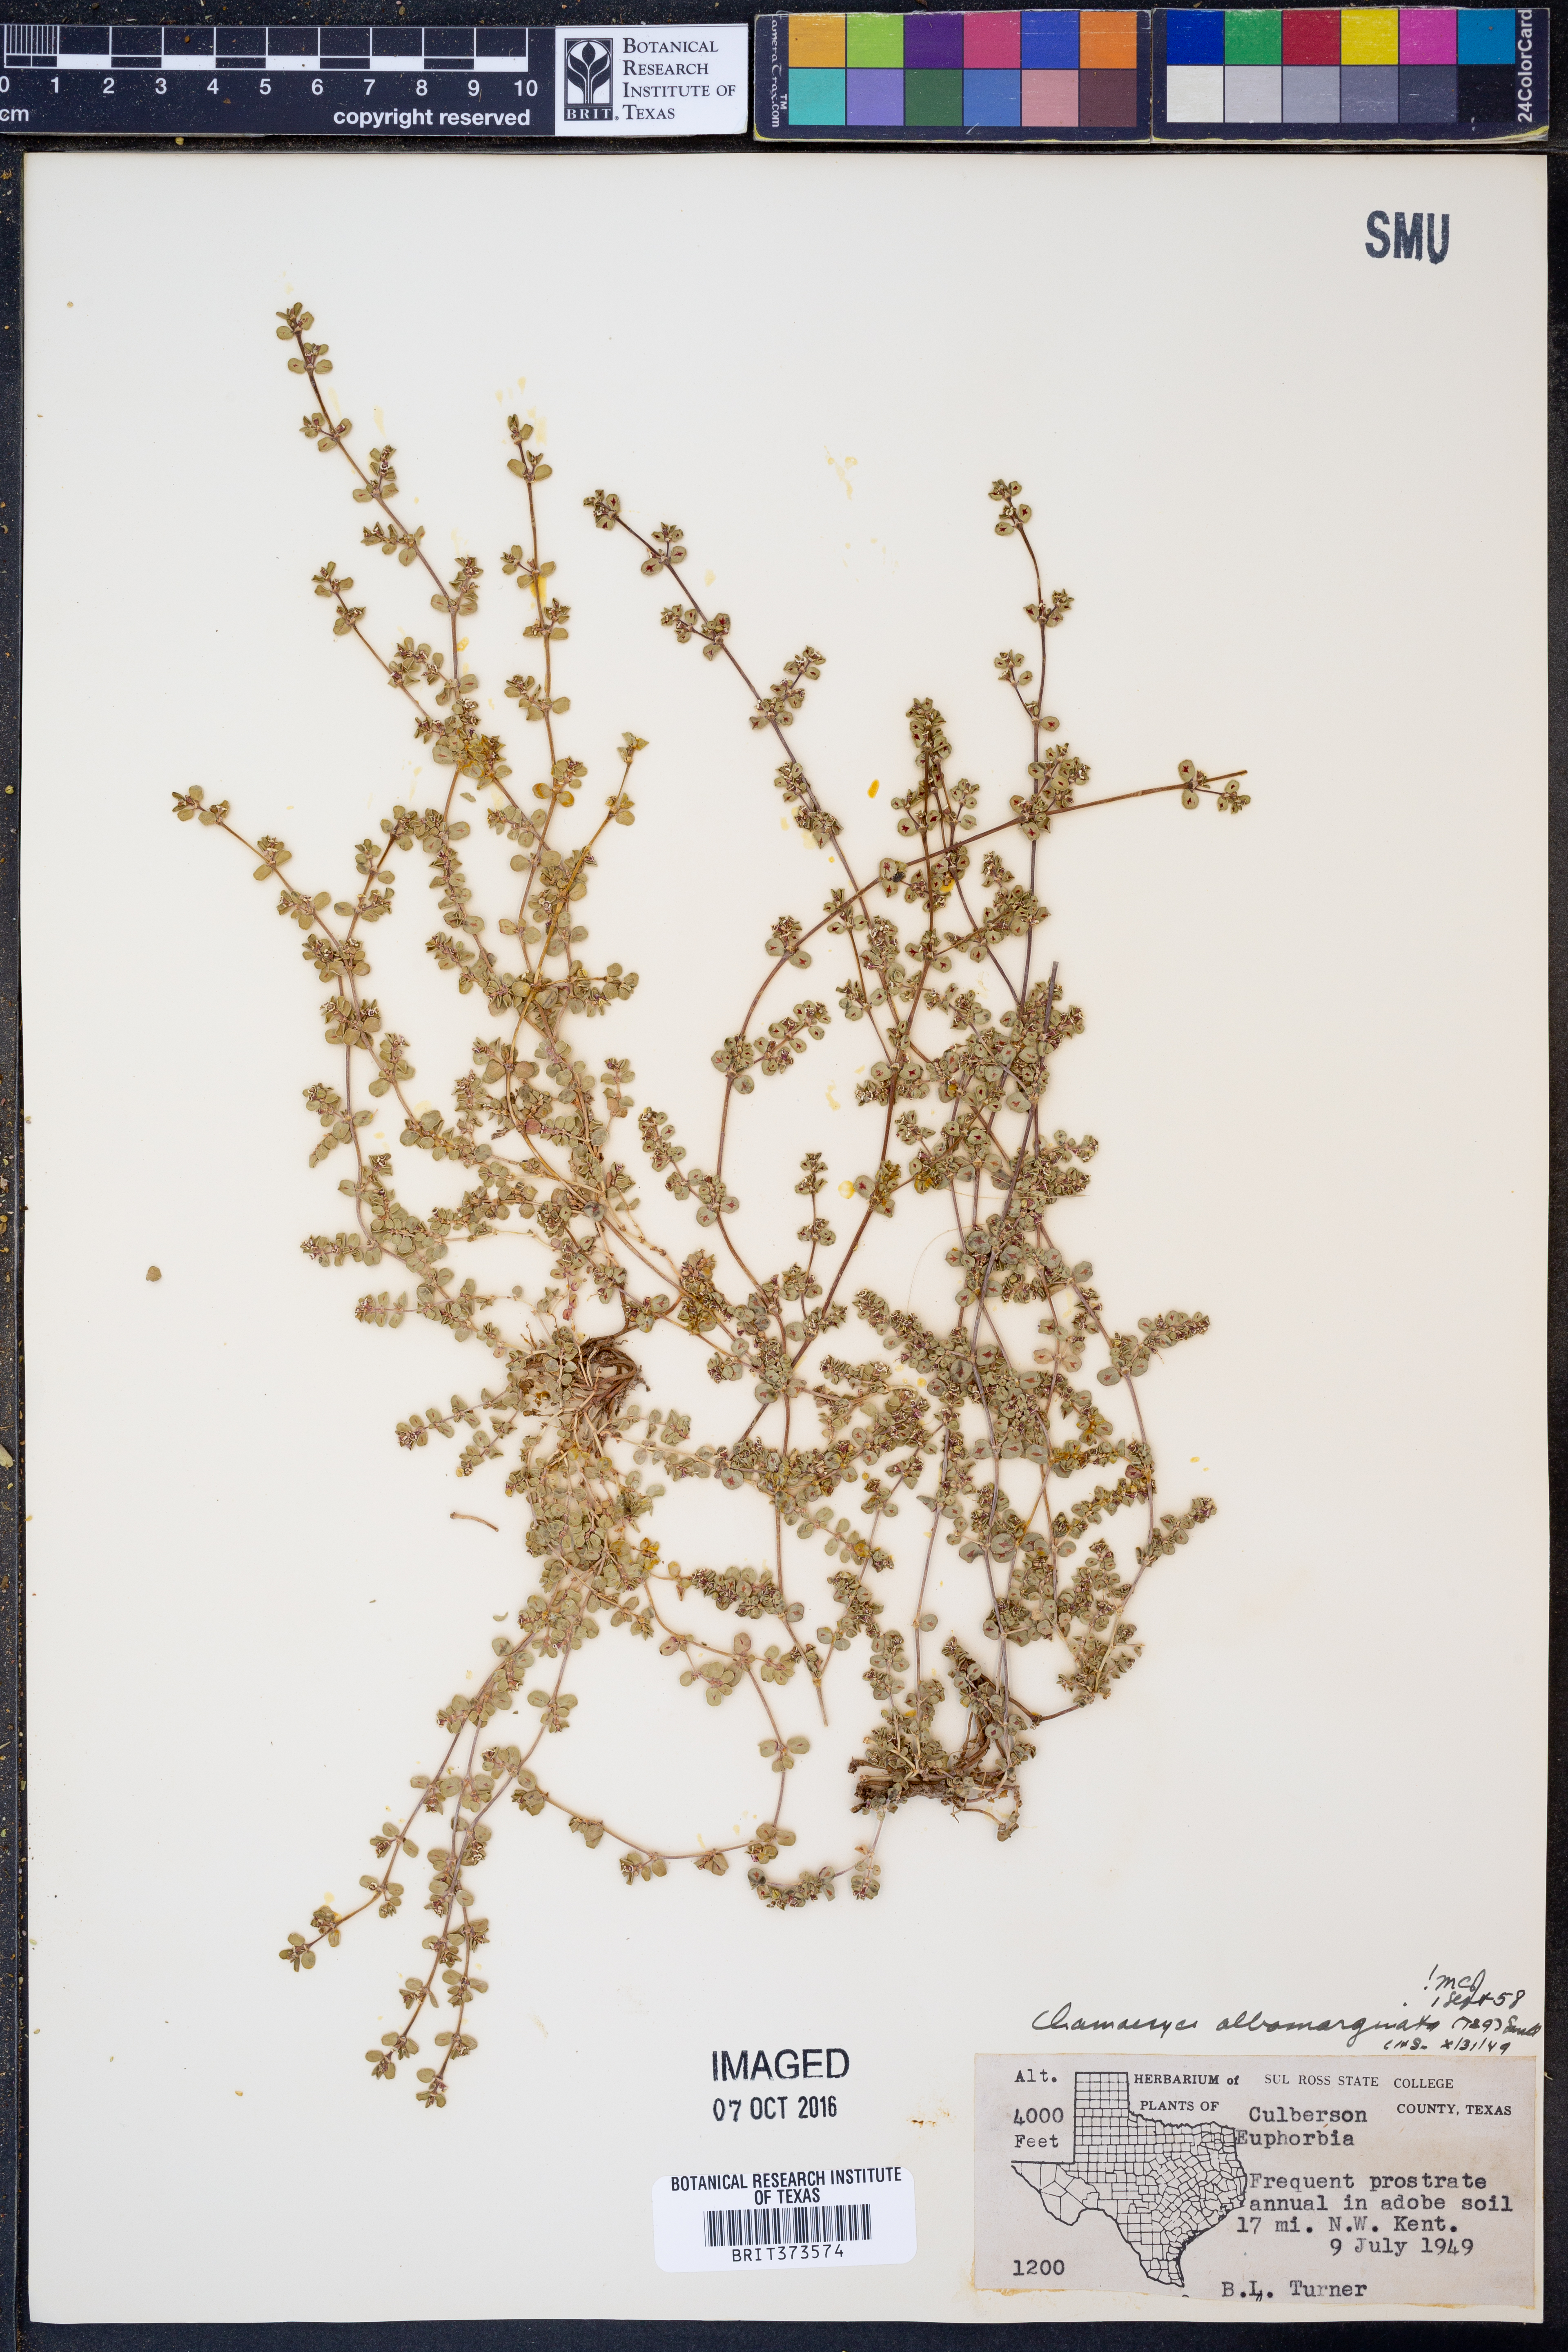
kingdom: Plantae
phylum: Tracheophyta
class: Magnoliopsida
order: Malpighiales
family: Euphorbiaceae
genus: Euphorbia
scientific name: Euphorbia albomarginata
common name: Whitemargin sandmat
